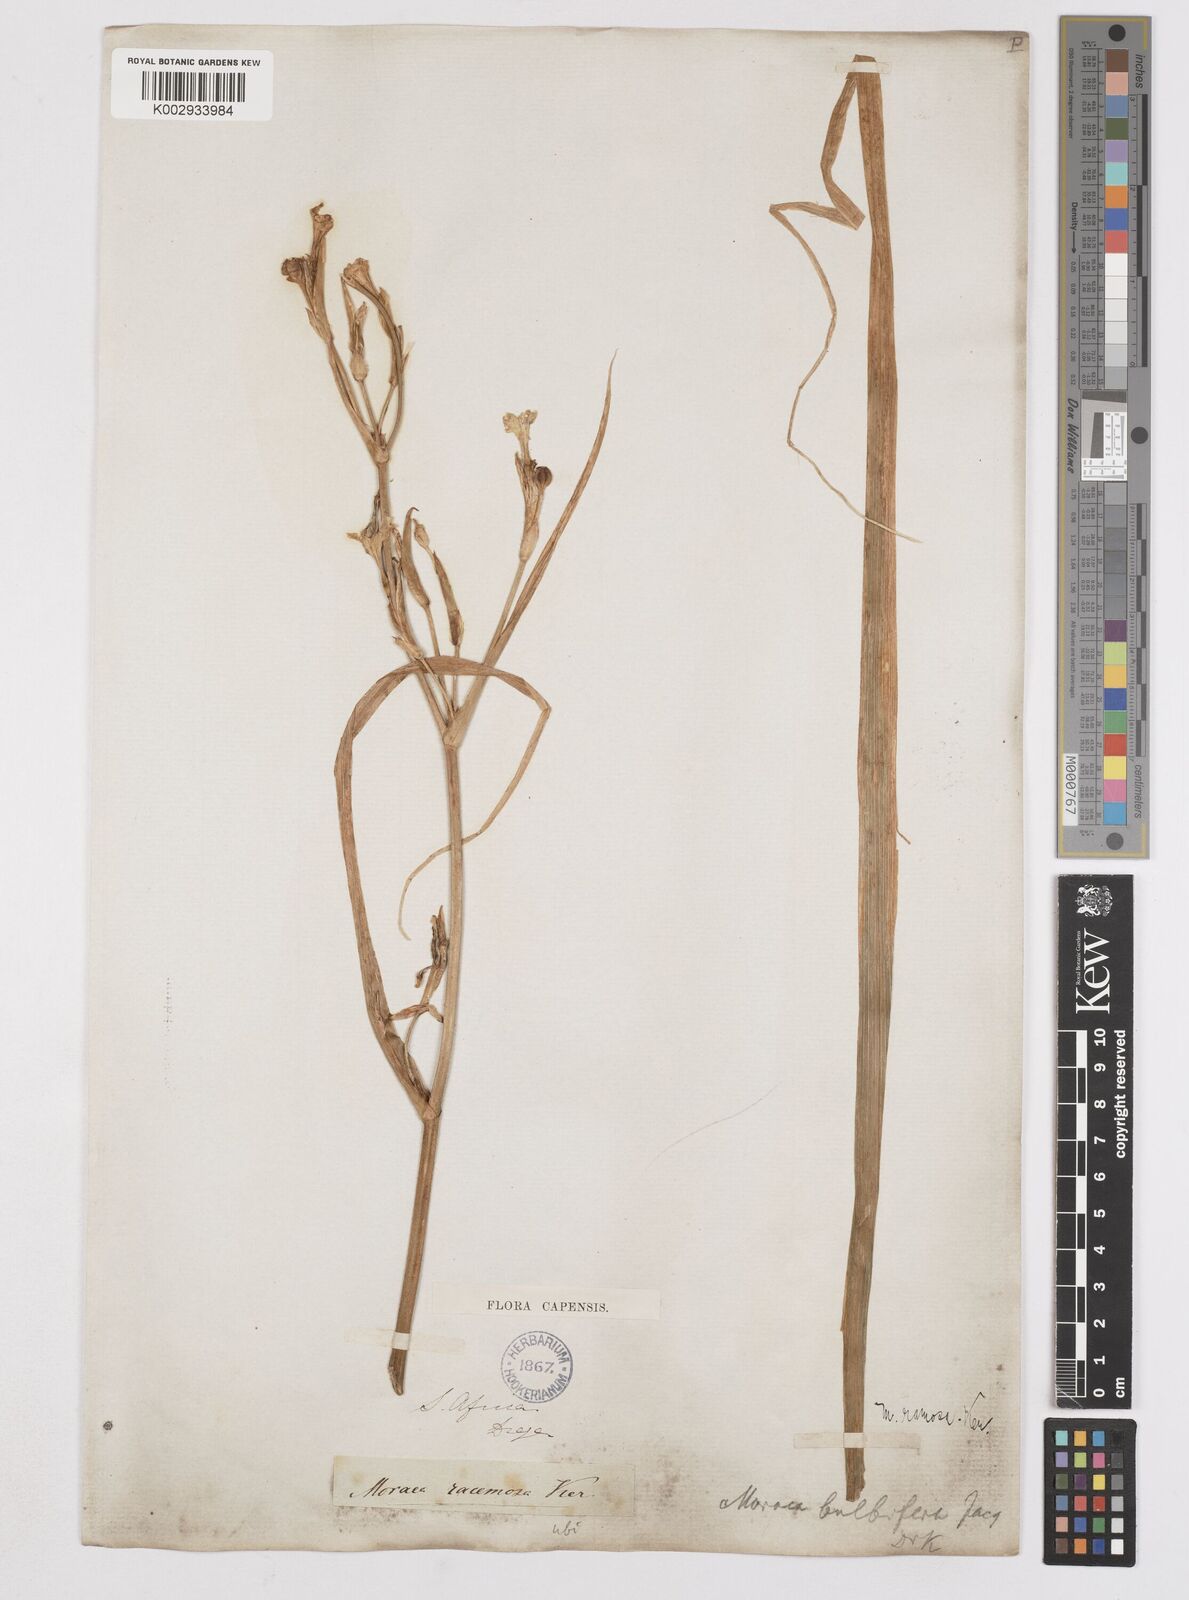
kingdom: Plantae
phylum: Tracheophyta
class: Liliopsida
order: Asparagales
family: Iridaceae
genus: Moraea
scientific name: Moraea ramosissima
